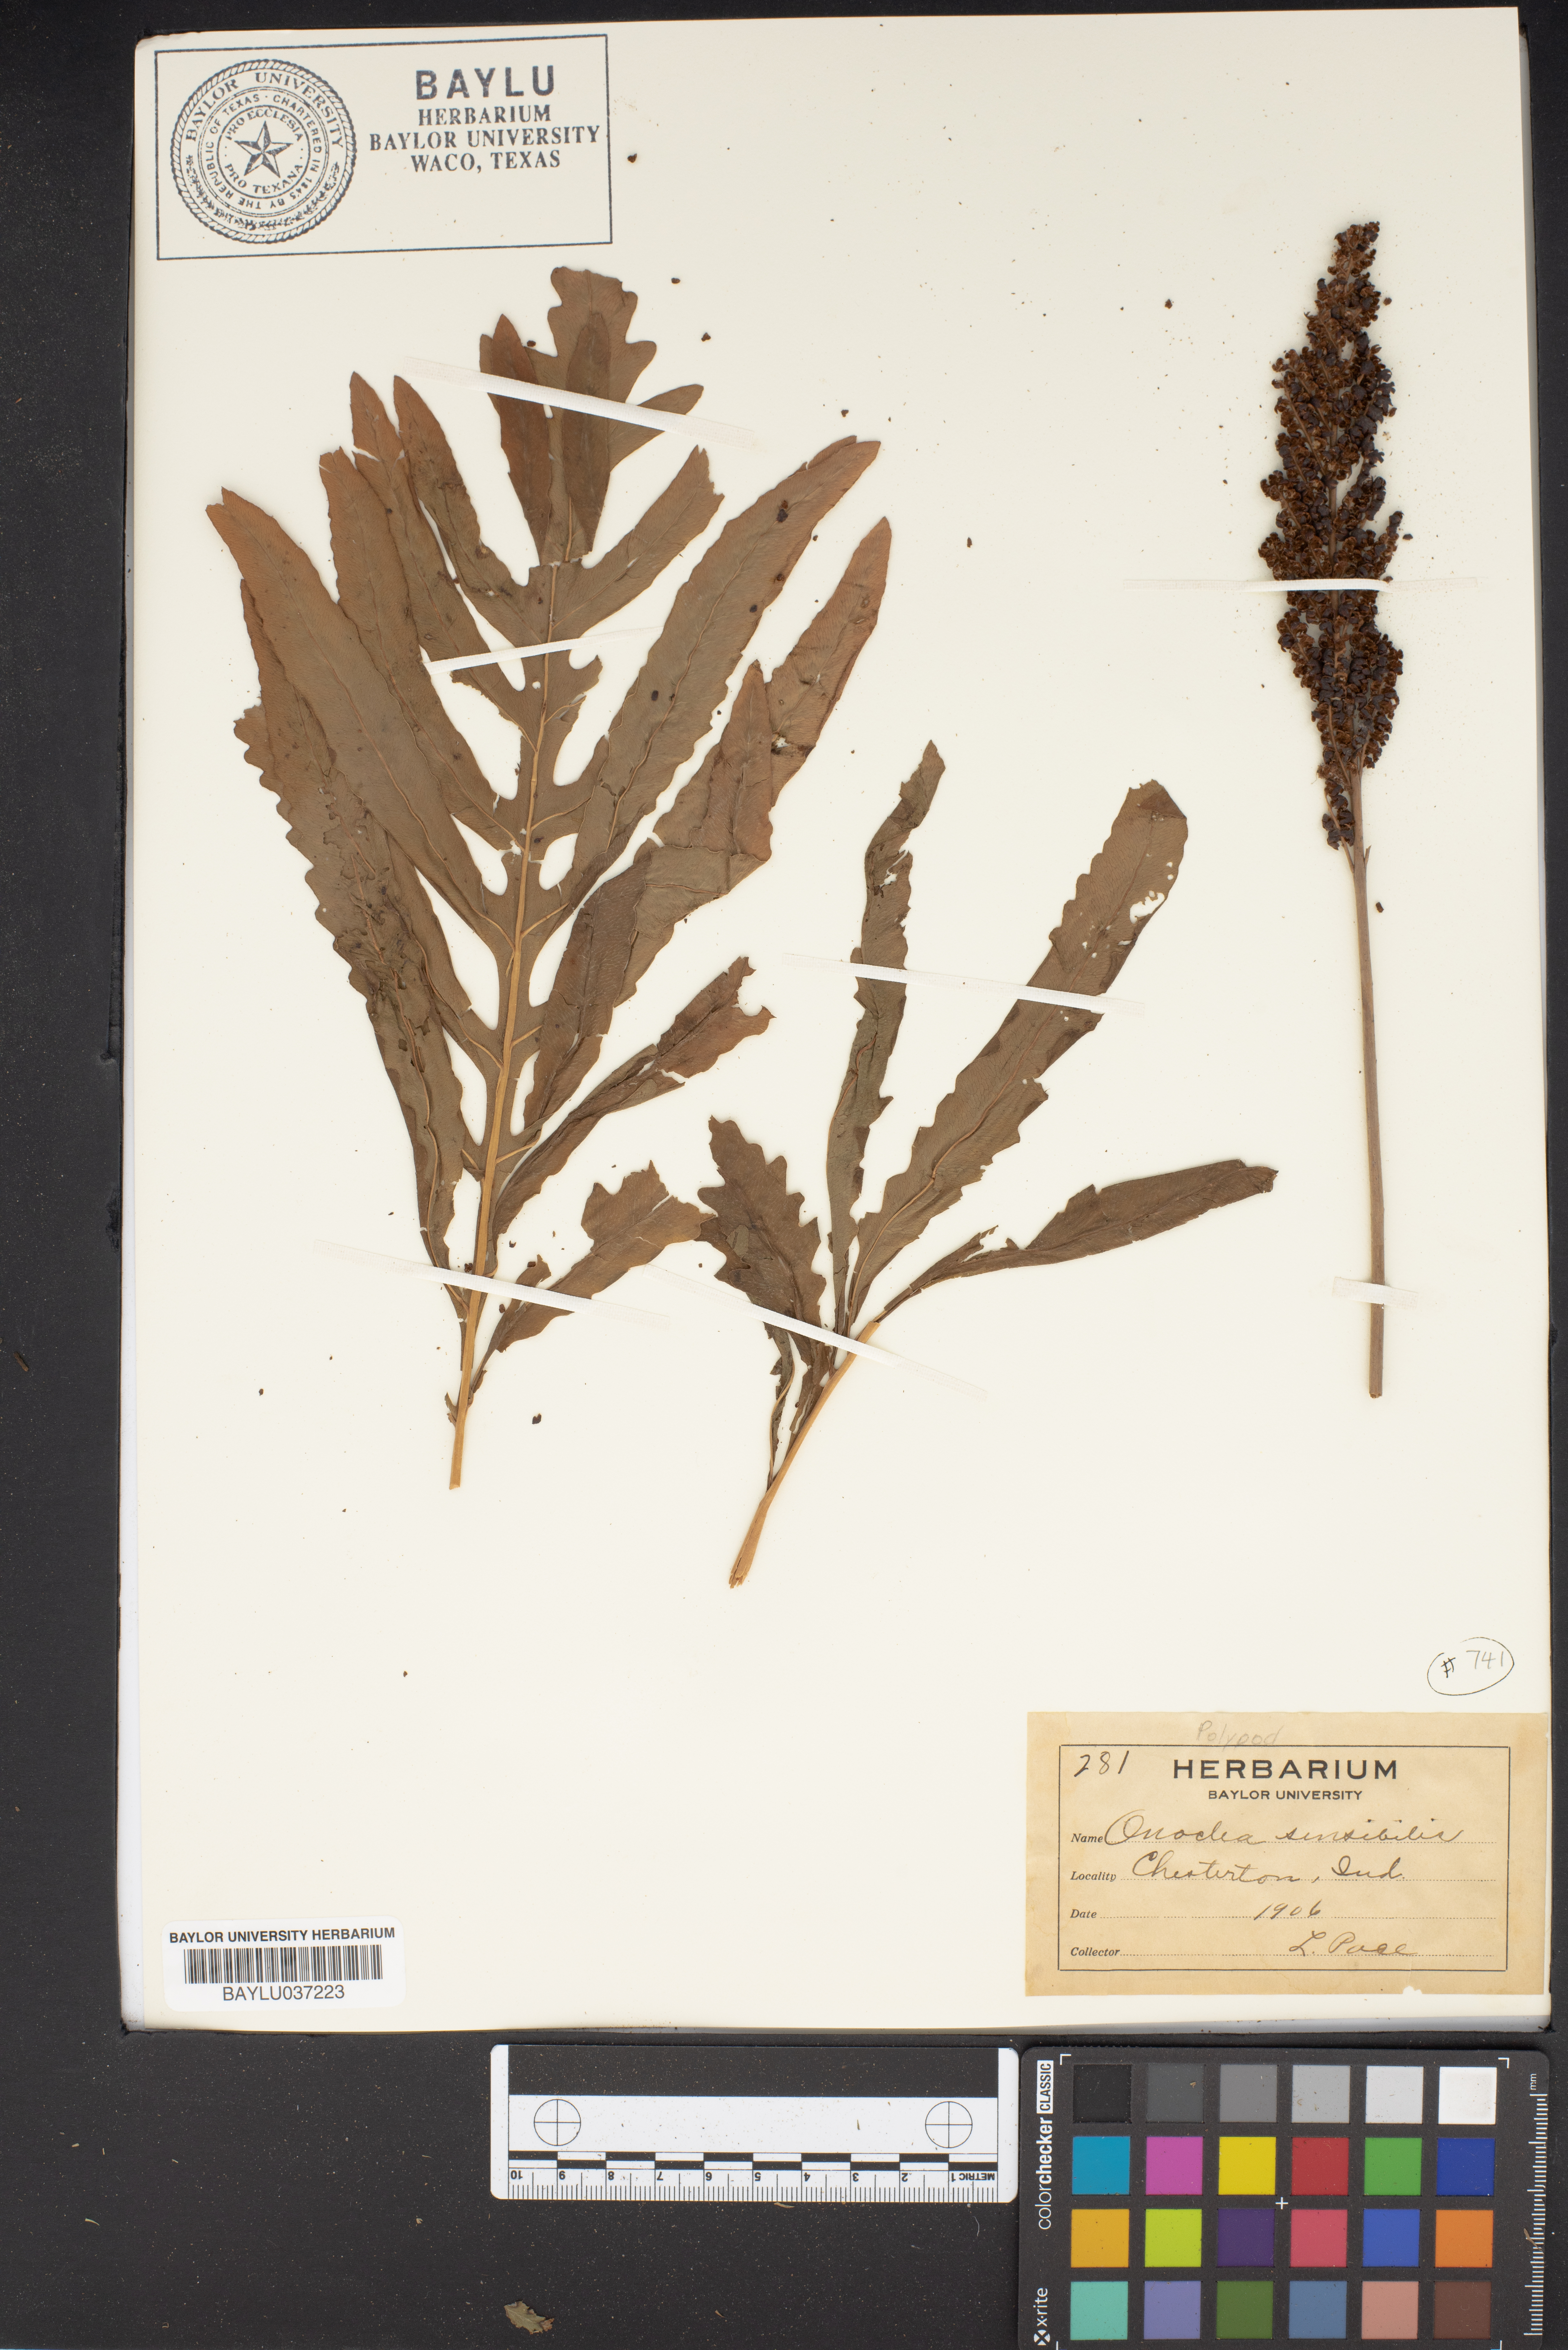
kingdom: Plantae
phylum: Tracheophyta
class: Polypodiopsida
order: Polypodiales
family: Onocleaceae
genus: Onoclea
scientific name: Onoclea sensibilis
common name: Sensitive fern
